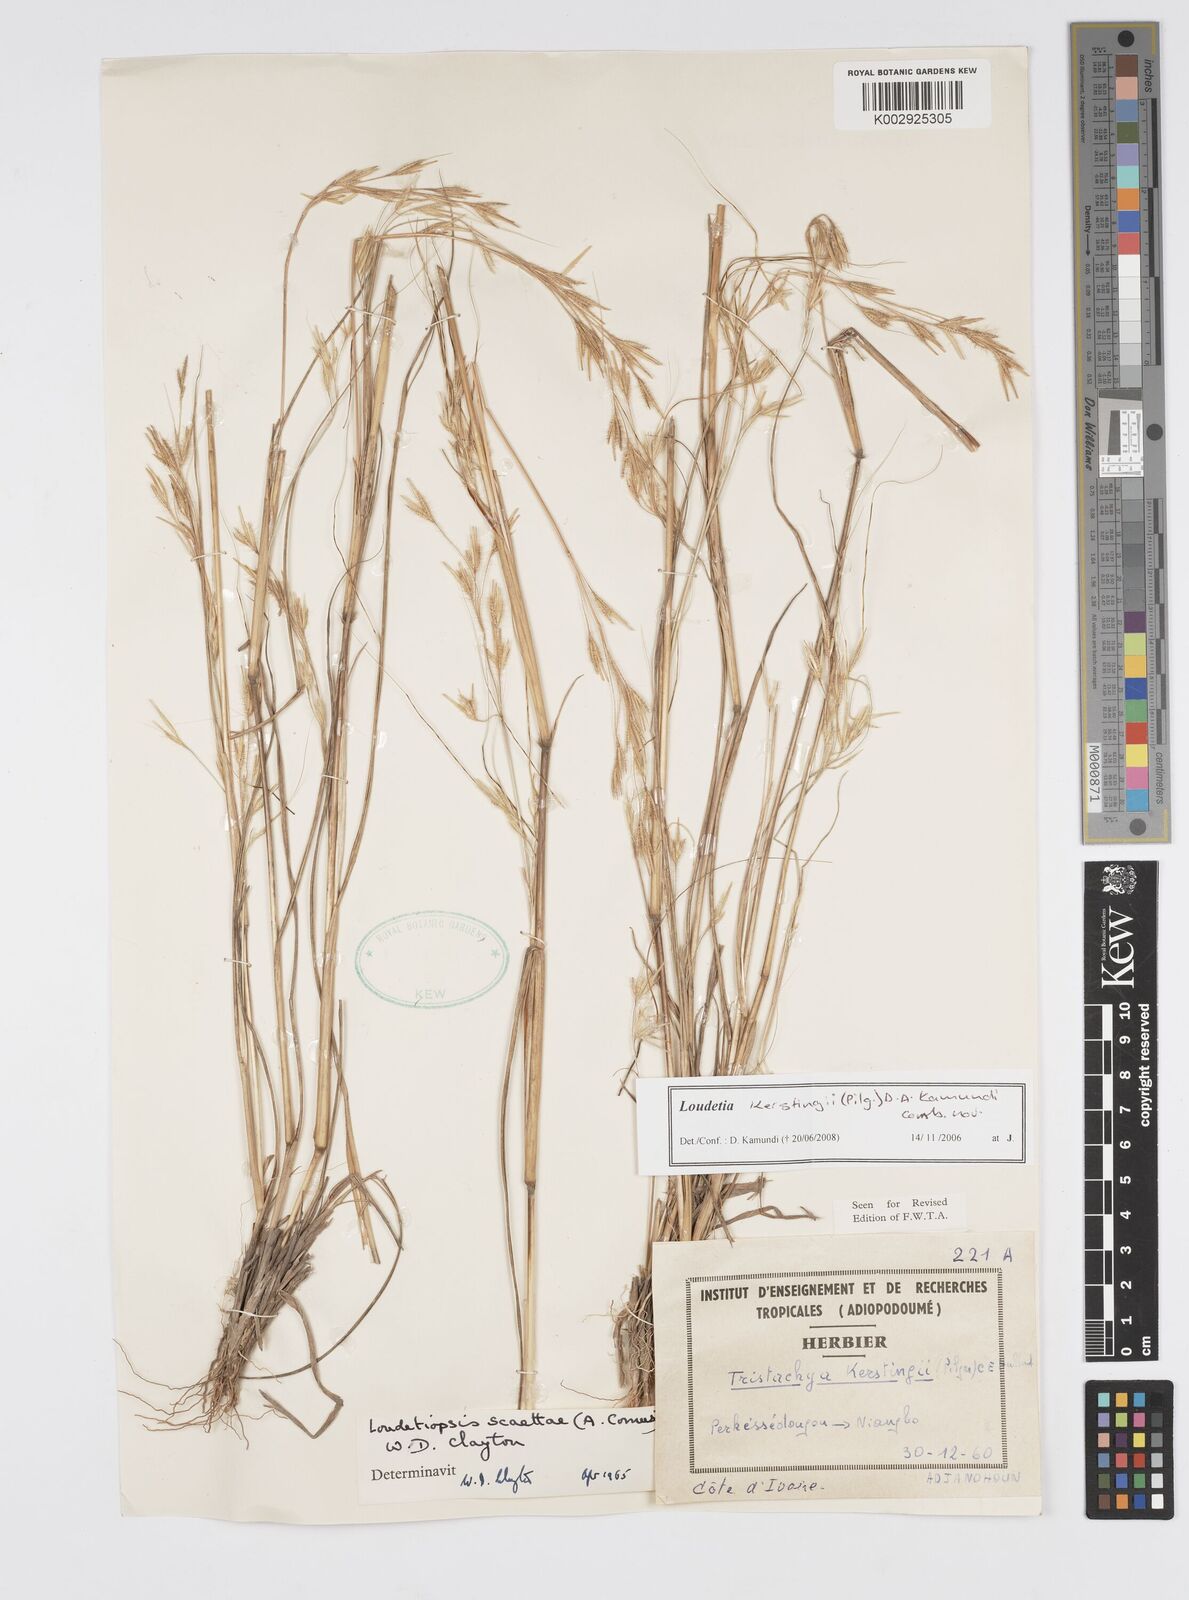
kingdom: Plantae
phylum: Tracheophyta
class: Liliopsida
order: Poales
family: Poaceae
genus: Loudetiopsis
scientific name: Loudetiopsis kerstingii
